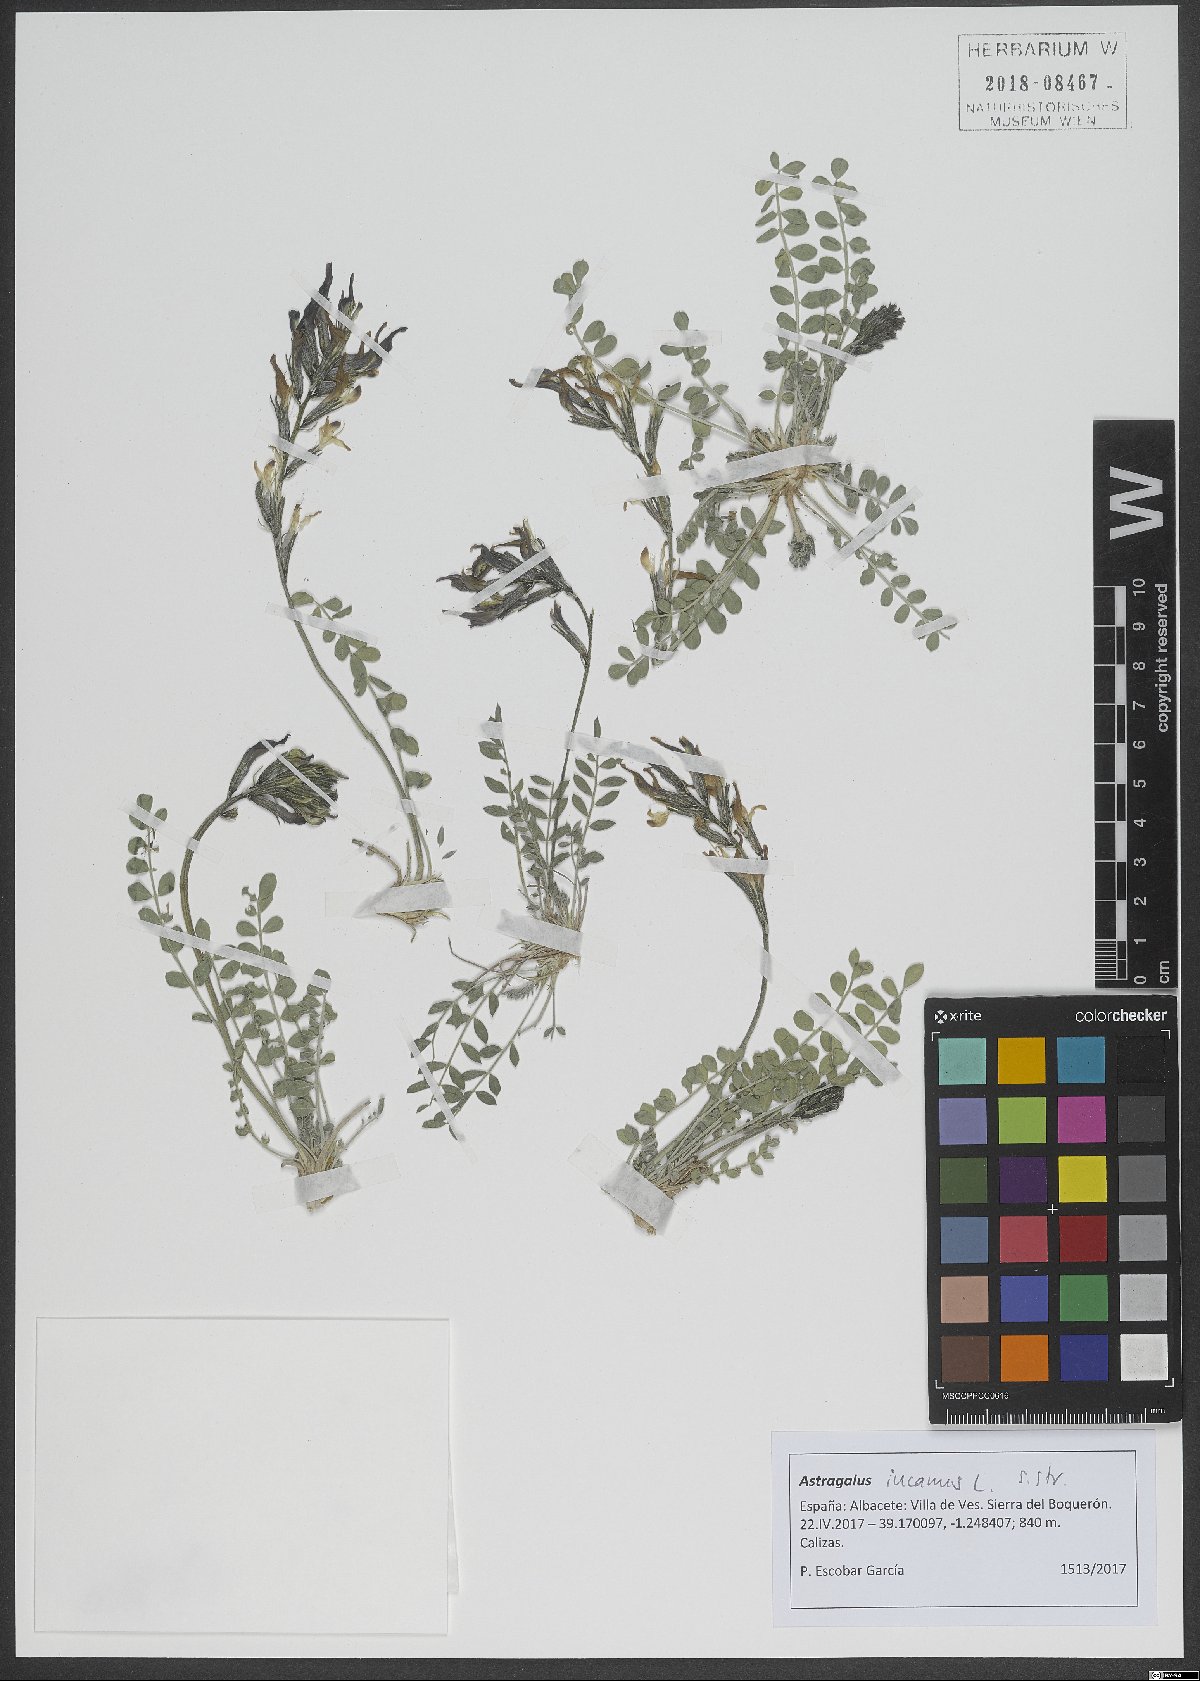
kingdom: Plantae
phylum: Tracheophyta
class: Magnoliopsida
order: Fabales
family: Fabaceae
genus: Astragalus
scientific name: Astragalus incanus
